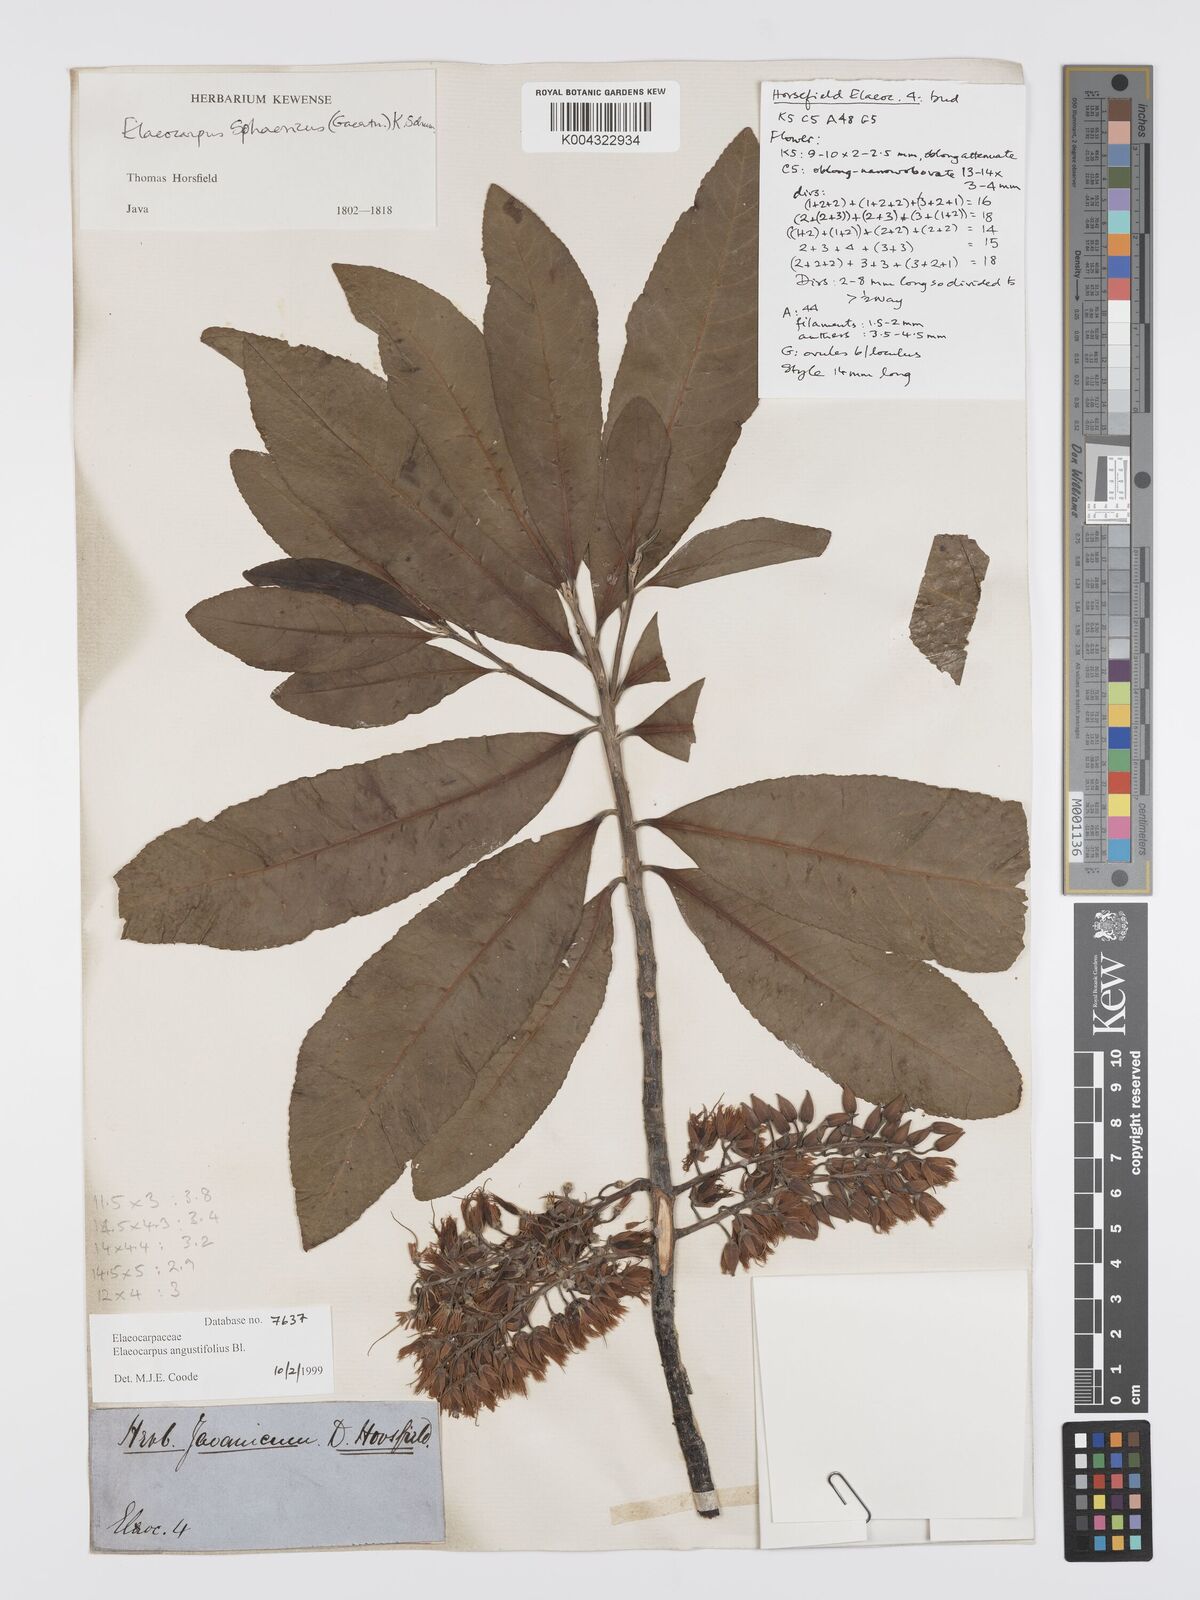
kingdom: Plantae
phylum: Tracheophyta
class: Magnoliopsida
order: Oxalidales
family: Elaeocarpaceae
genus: Elaeocarpus
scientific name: Elaeocarpus
